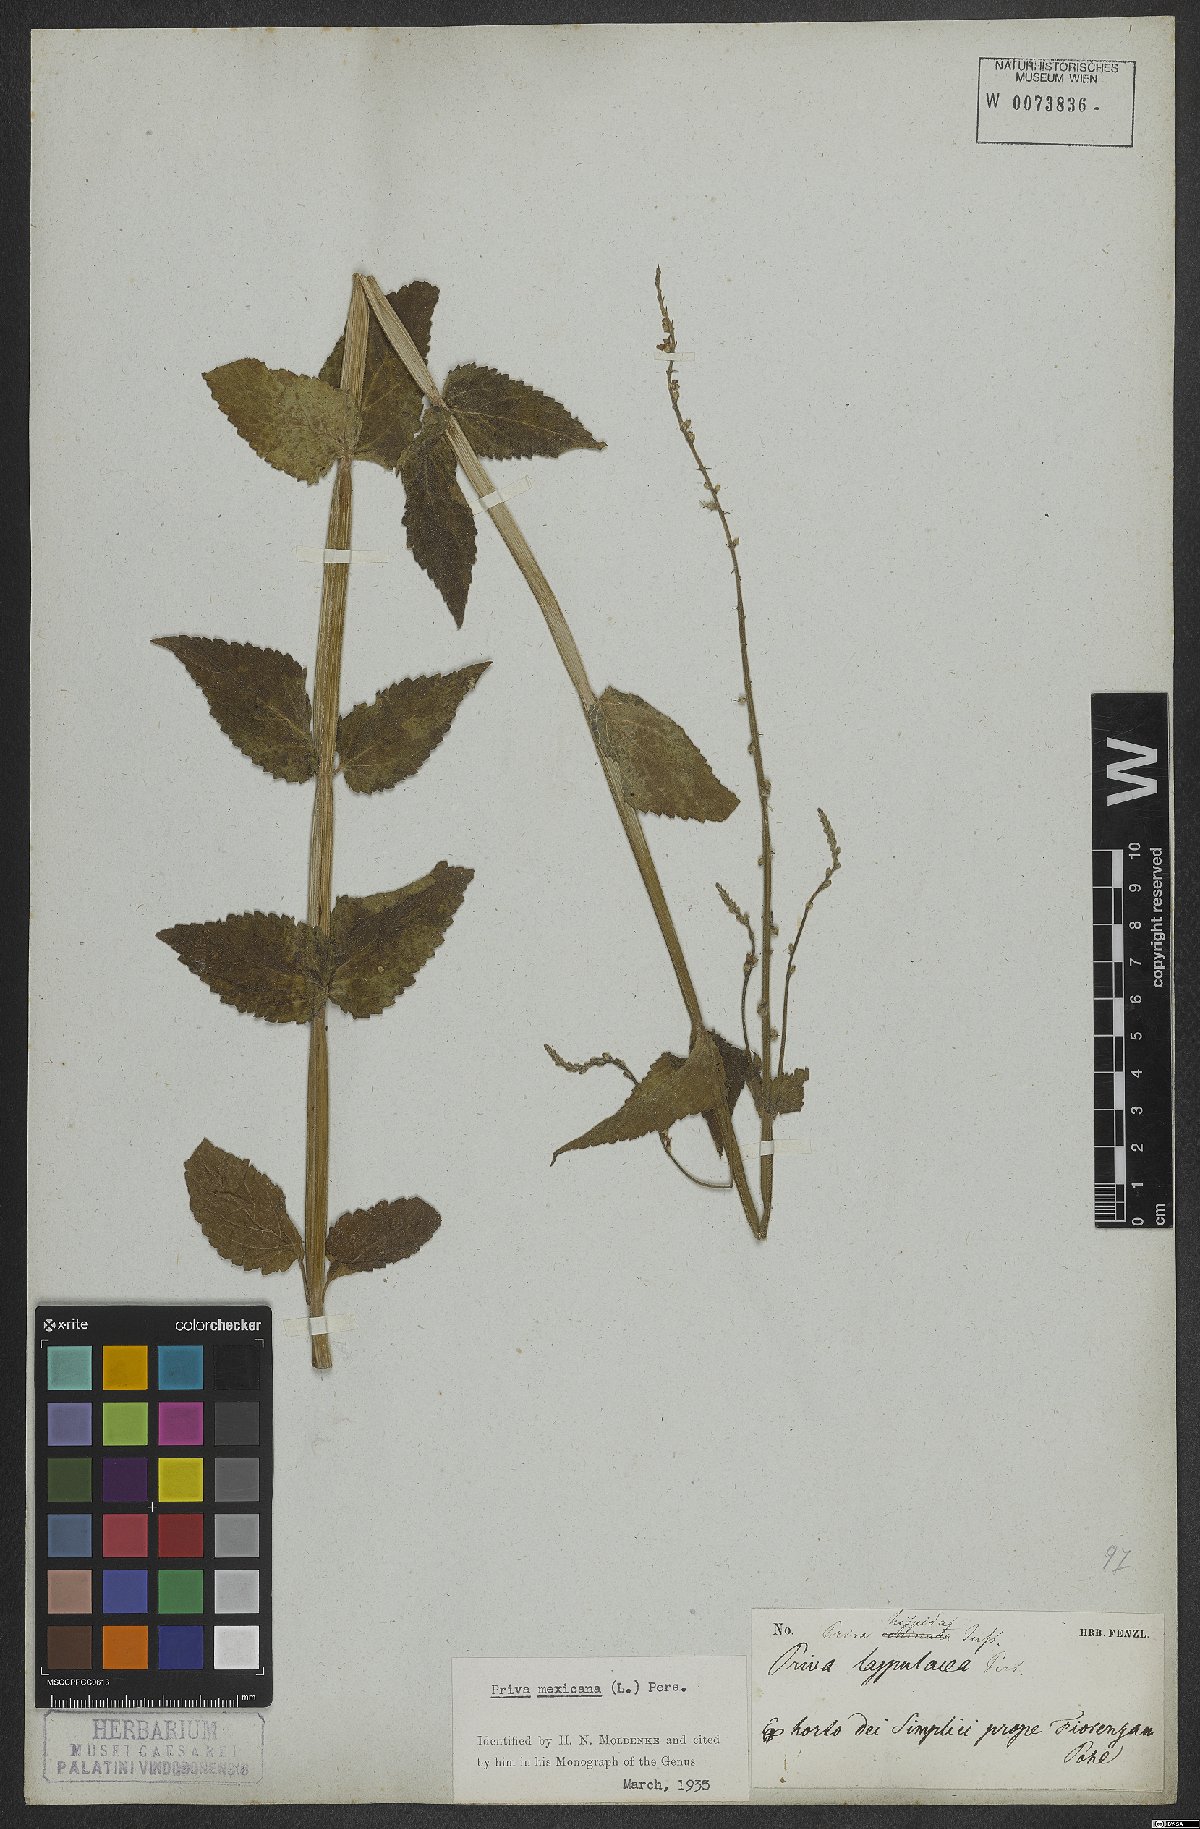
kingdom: Plantae
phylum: Tracheophyta
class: Magnoliopsida
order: Lamiales
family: Verbenaceae
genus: Priva
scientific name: Priva mexicana
